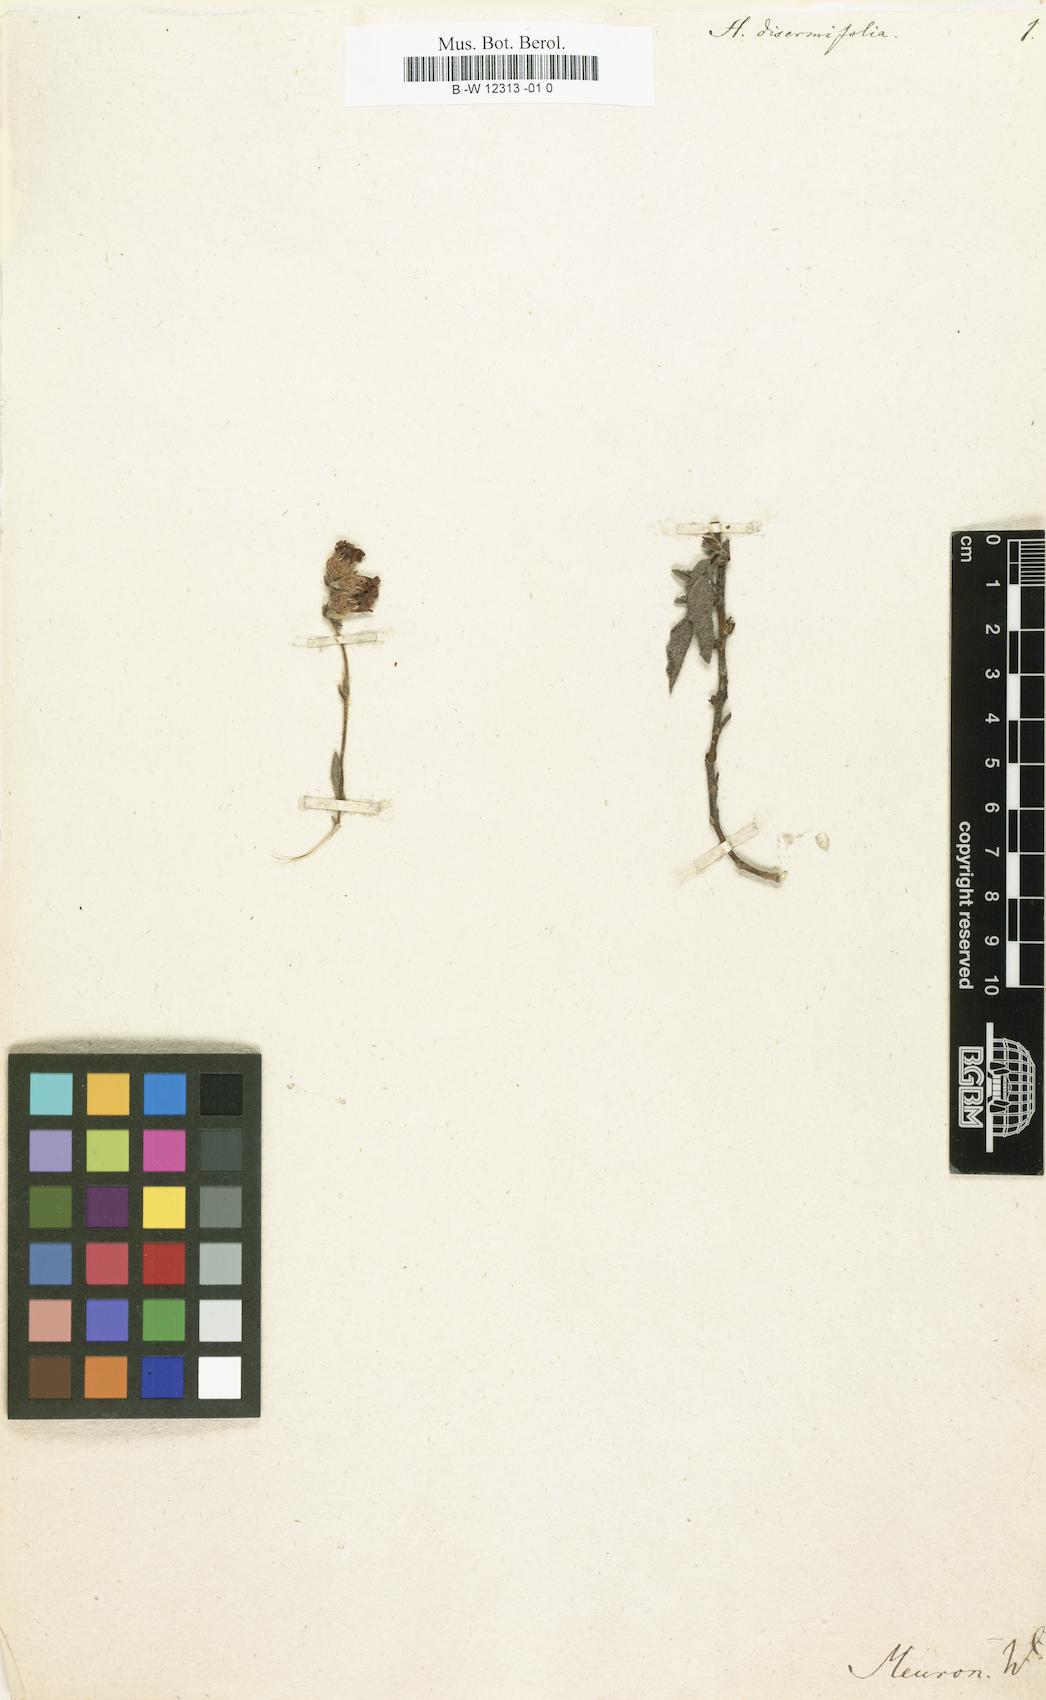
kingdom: Plantae
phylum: Tracheophyta
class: Magnoliopsida
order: Malvales
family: Malvaceae
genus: Hermannia
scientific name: Hermannia disermifolia
